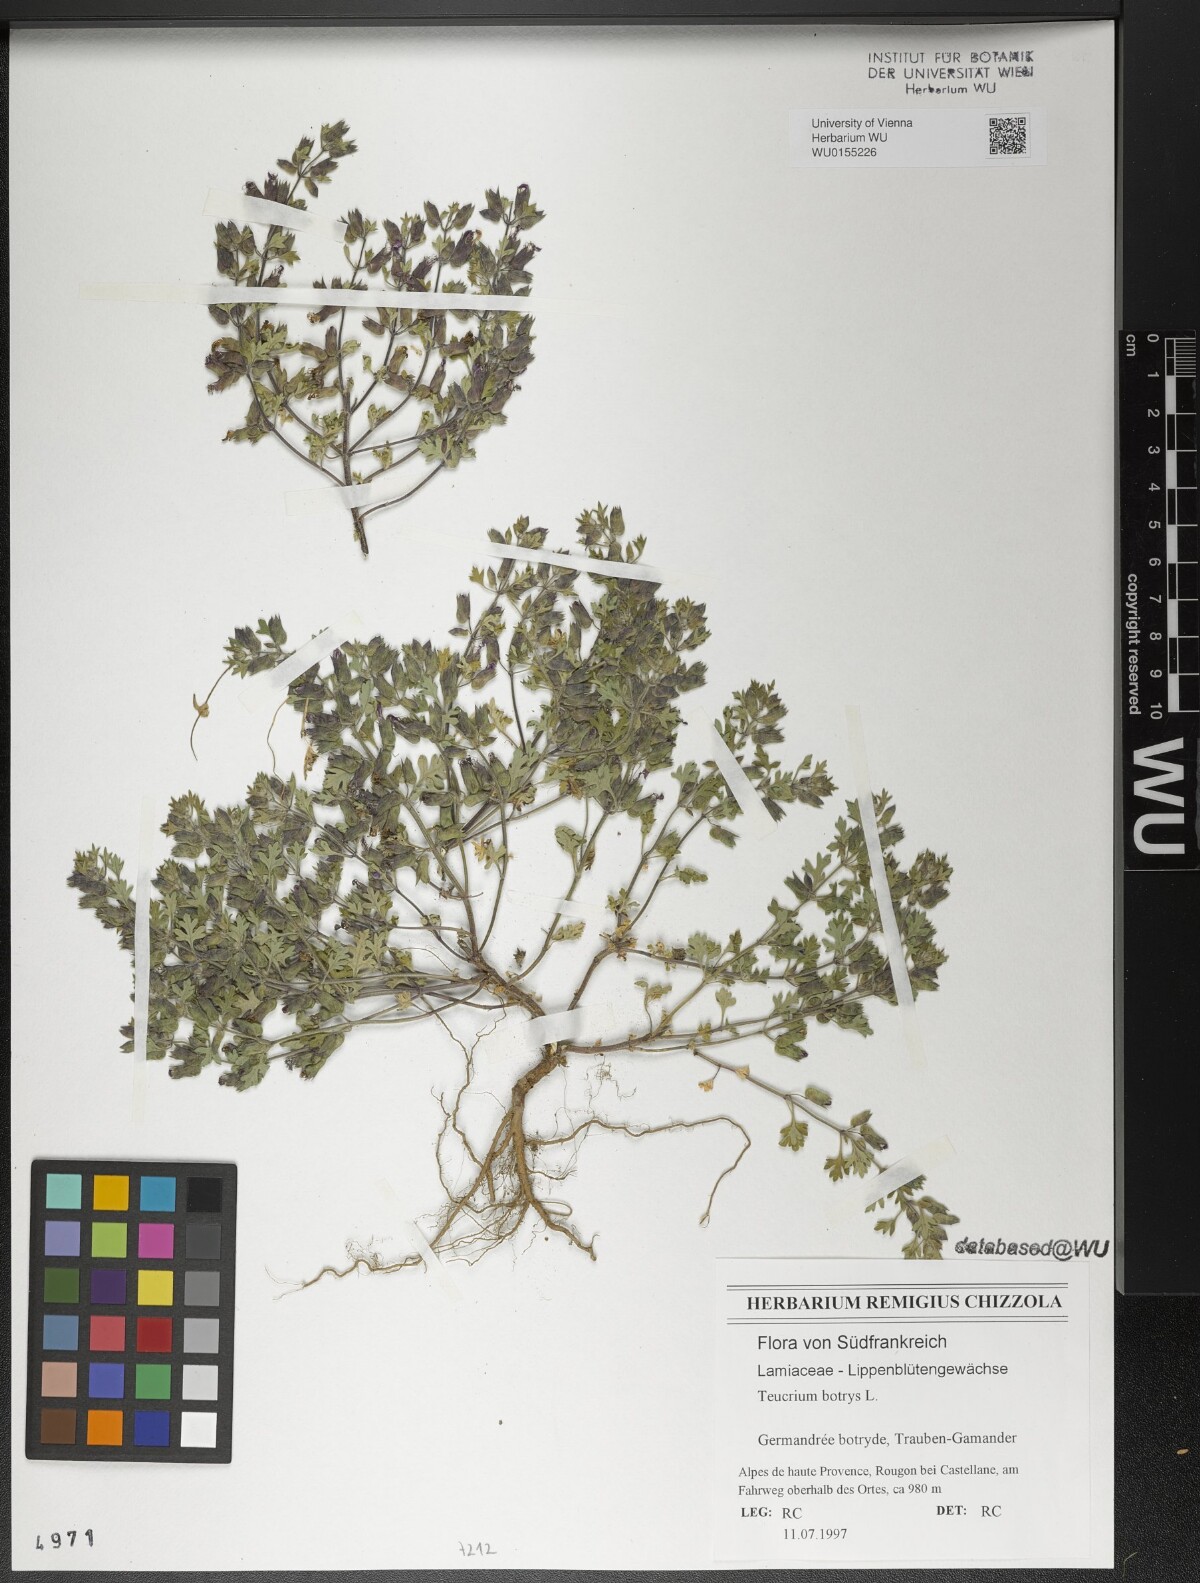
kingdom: Plantae
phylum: Tracheophyta
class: Magnoliopsida
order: Lamiales
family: Lamiaceae
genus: Teucrium
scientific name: Teucrium botrys
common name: Cut-leaved germander
